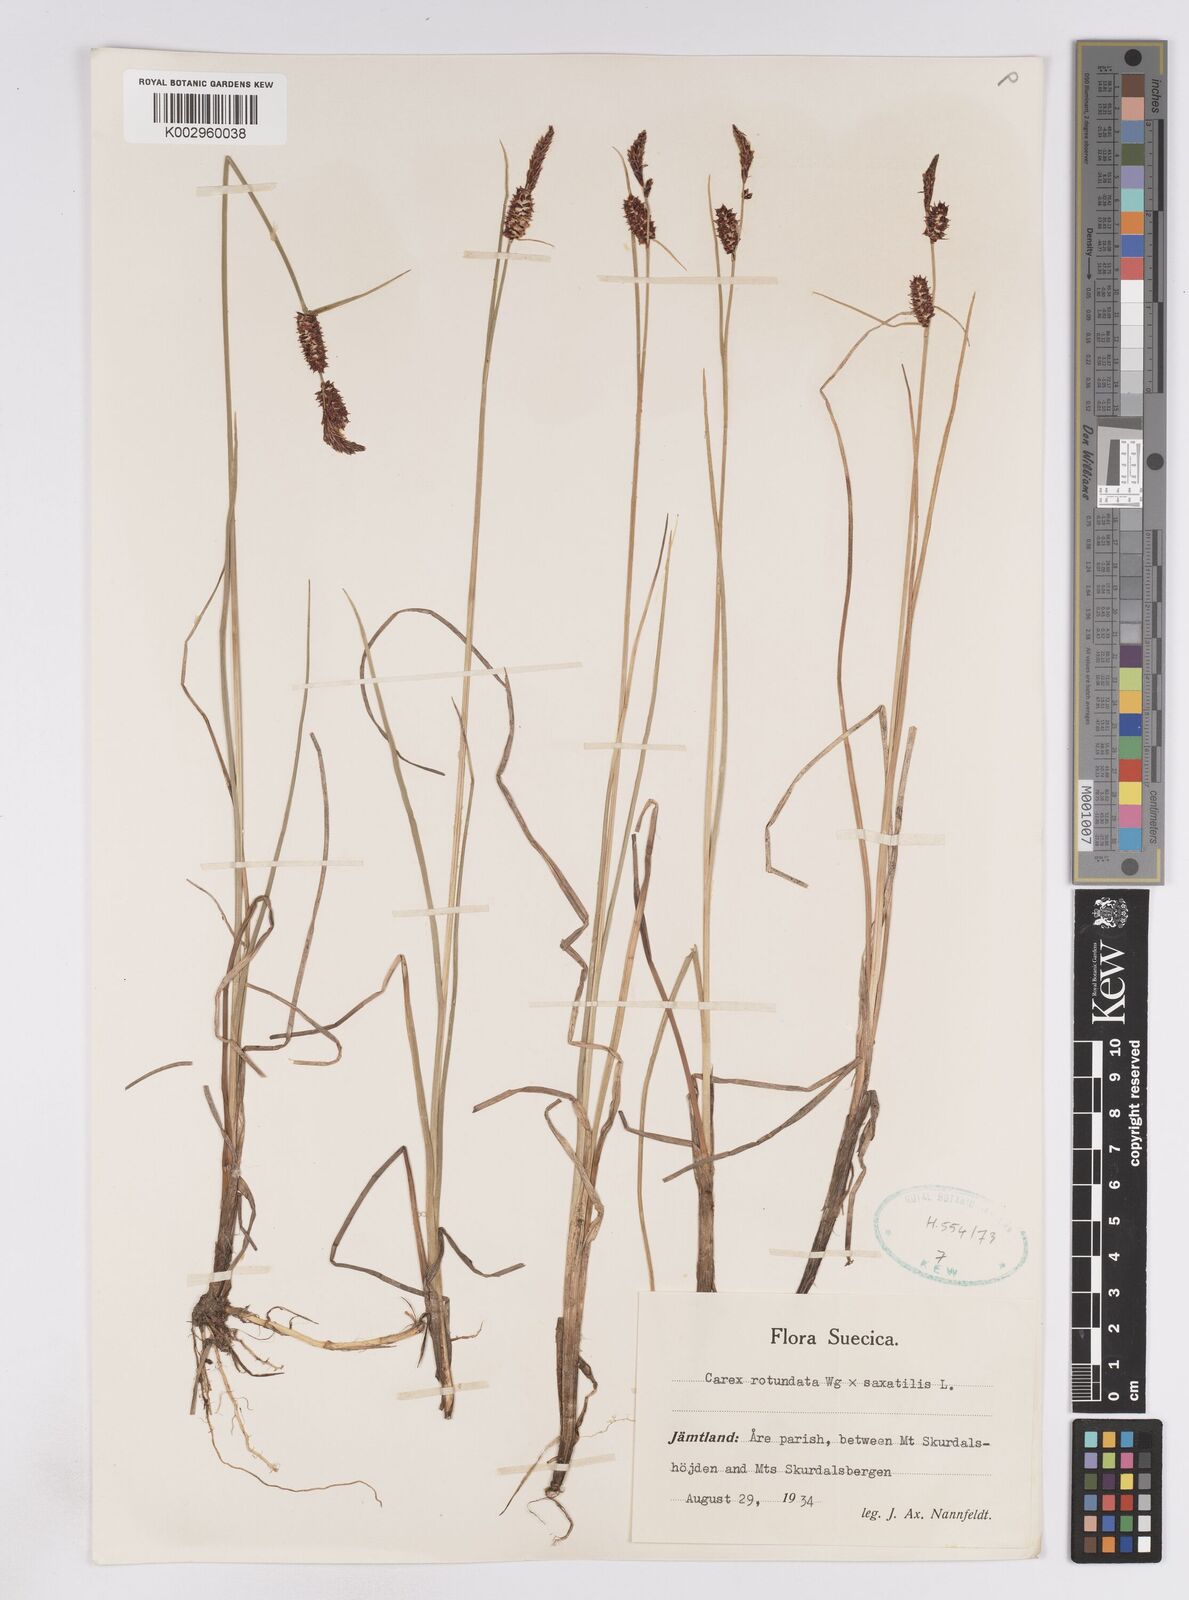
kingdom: Plantae
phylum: Tracheophyta
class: Liliopsida
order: Poales
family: Cyperaceae
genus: Carex
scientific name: Carex
